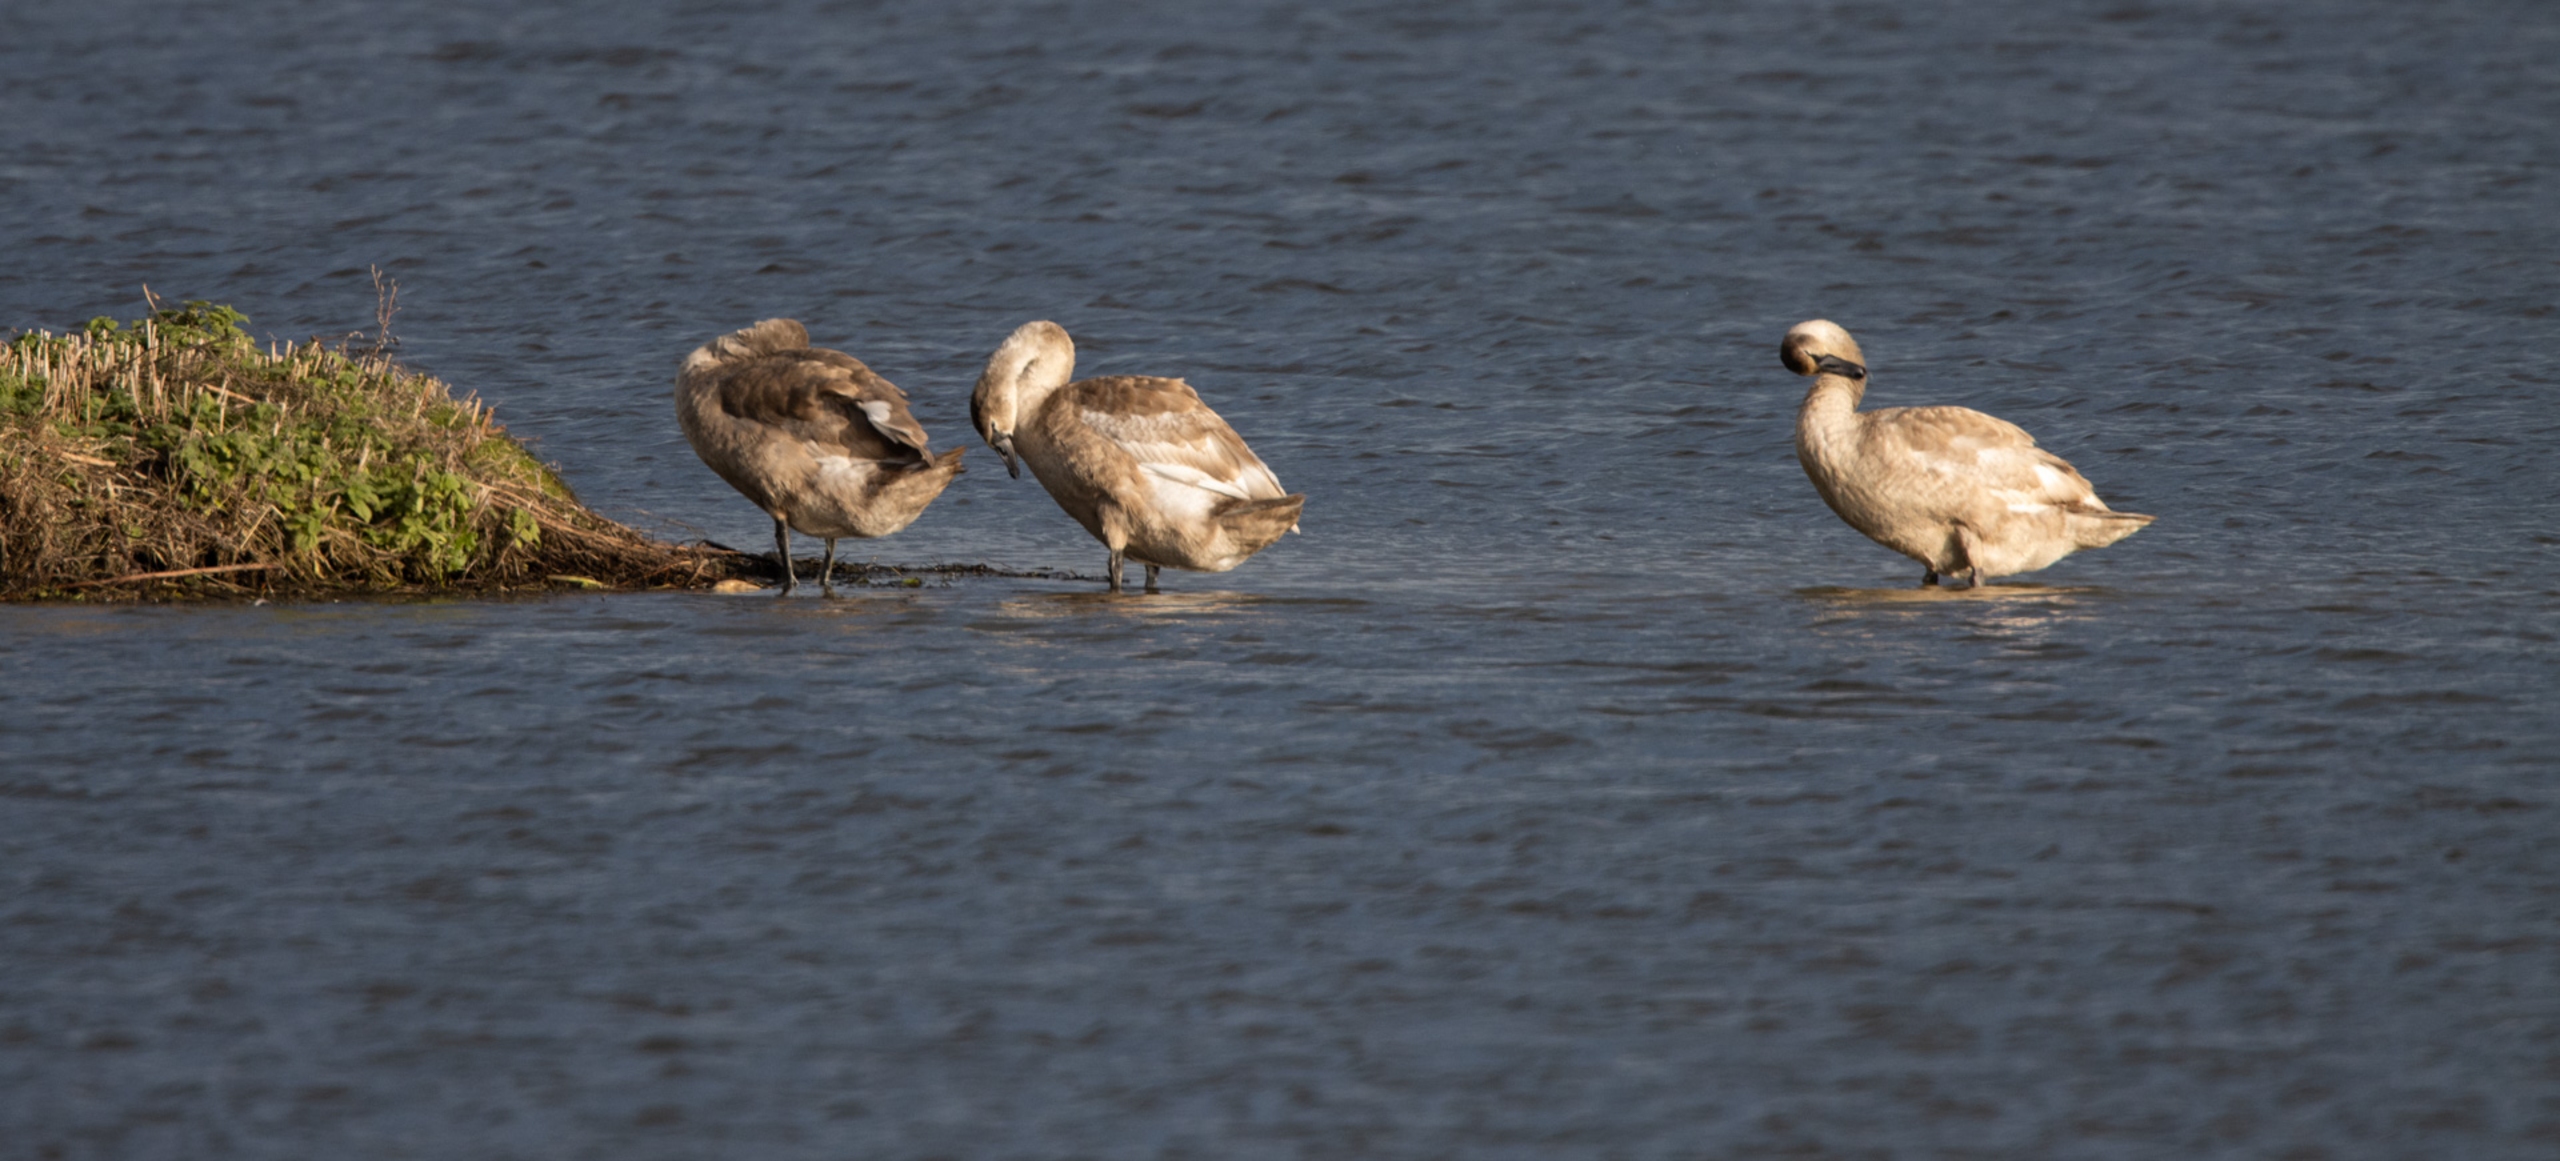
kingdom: Animalia
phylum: Chordata
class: Aves
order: Anseriformes
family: Anatidae
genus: Cygnus
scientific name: Cygnus olor
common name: Knopsvane
